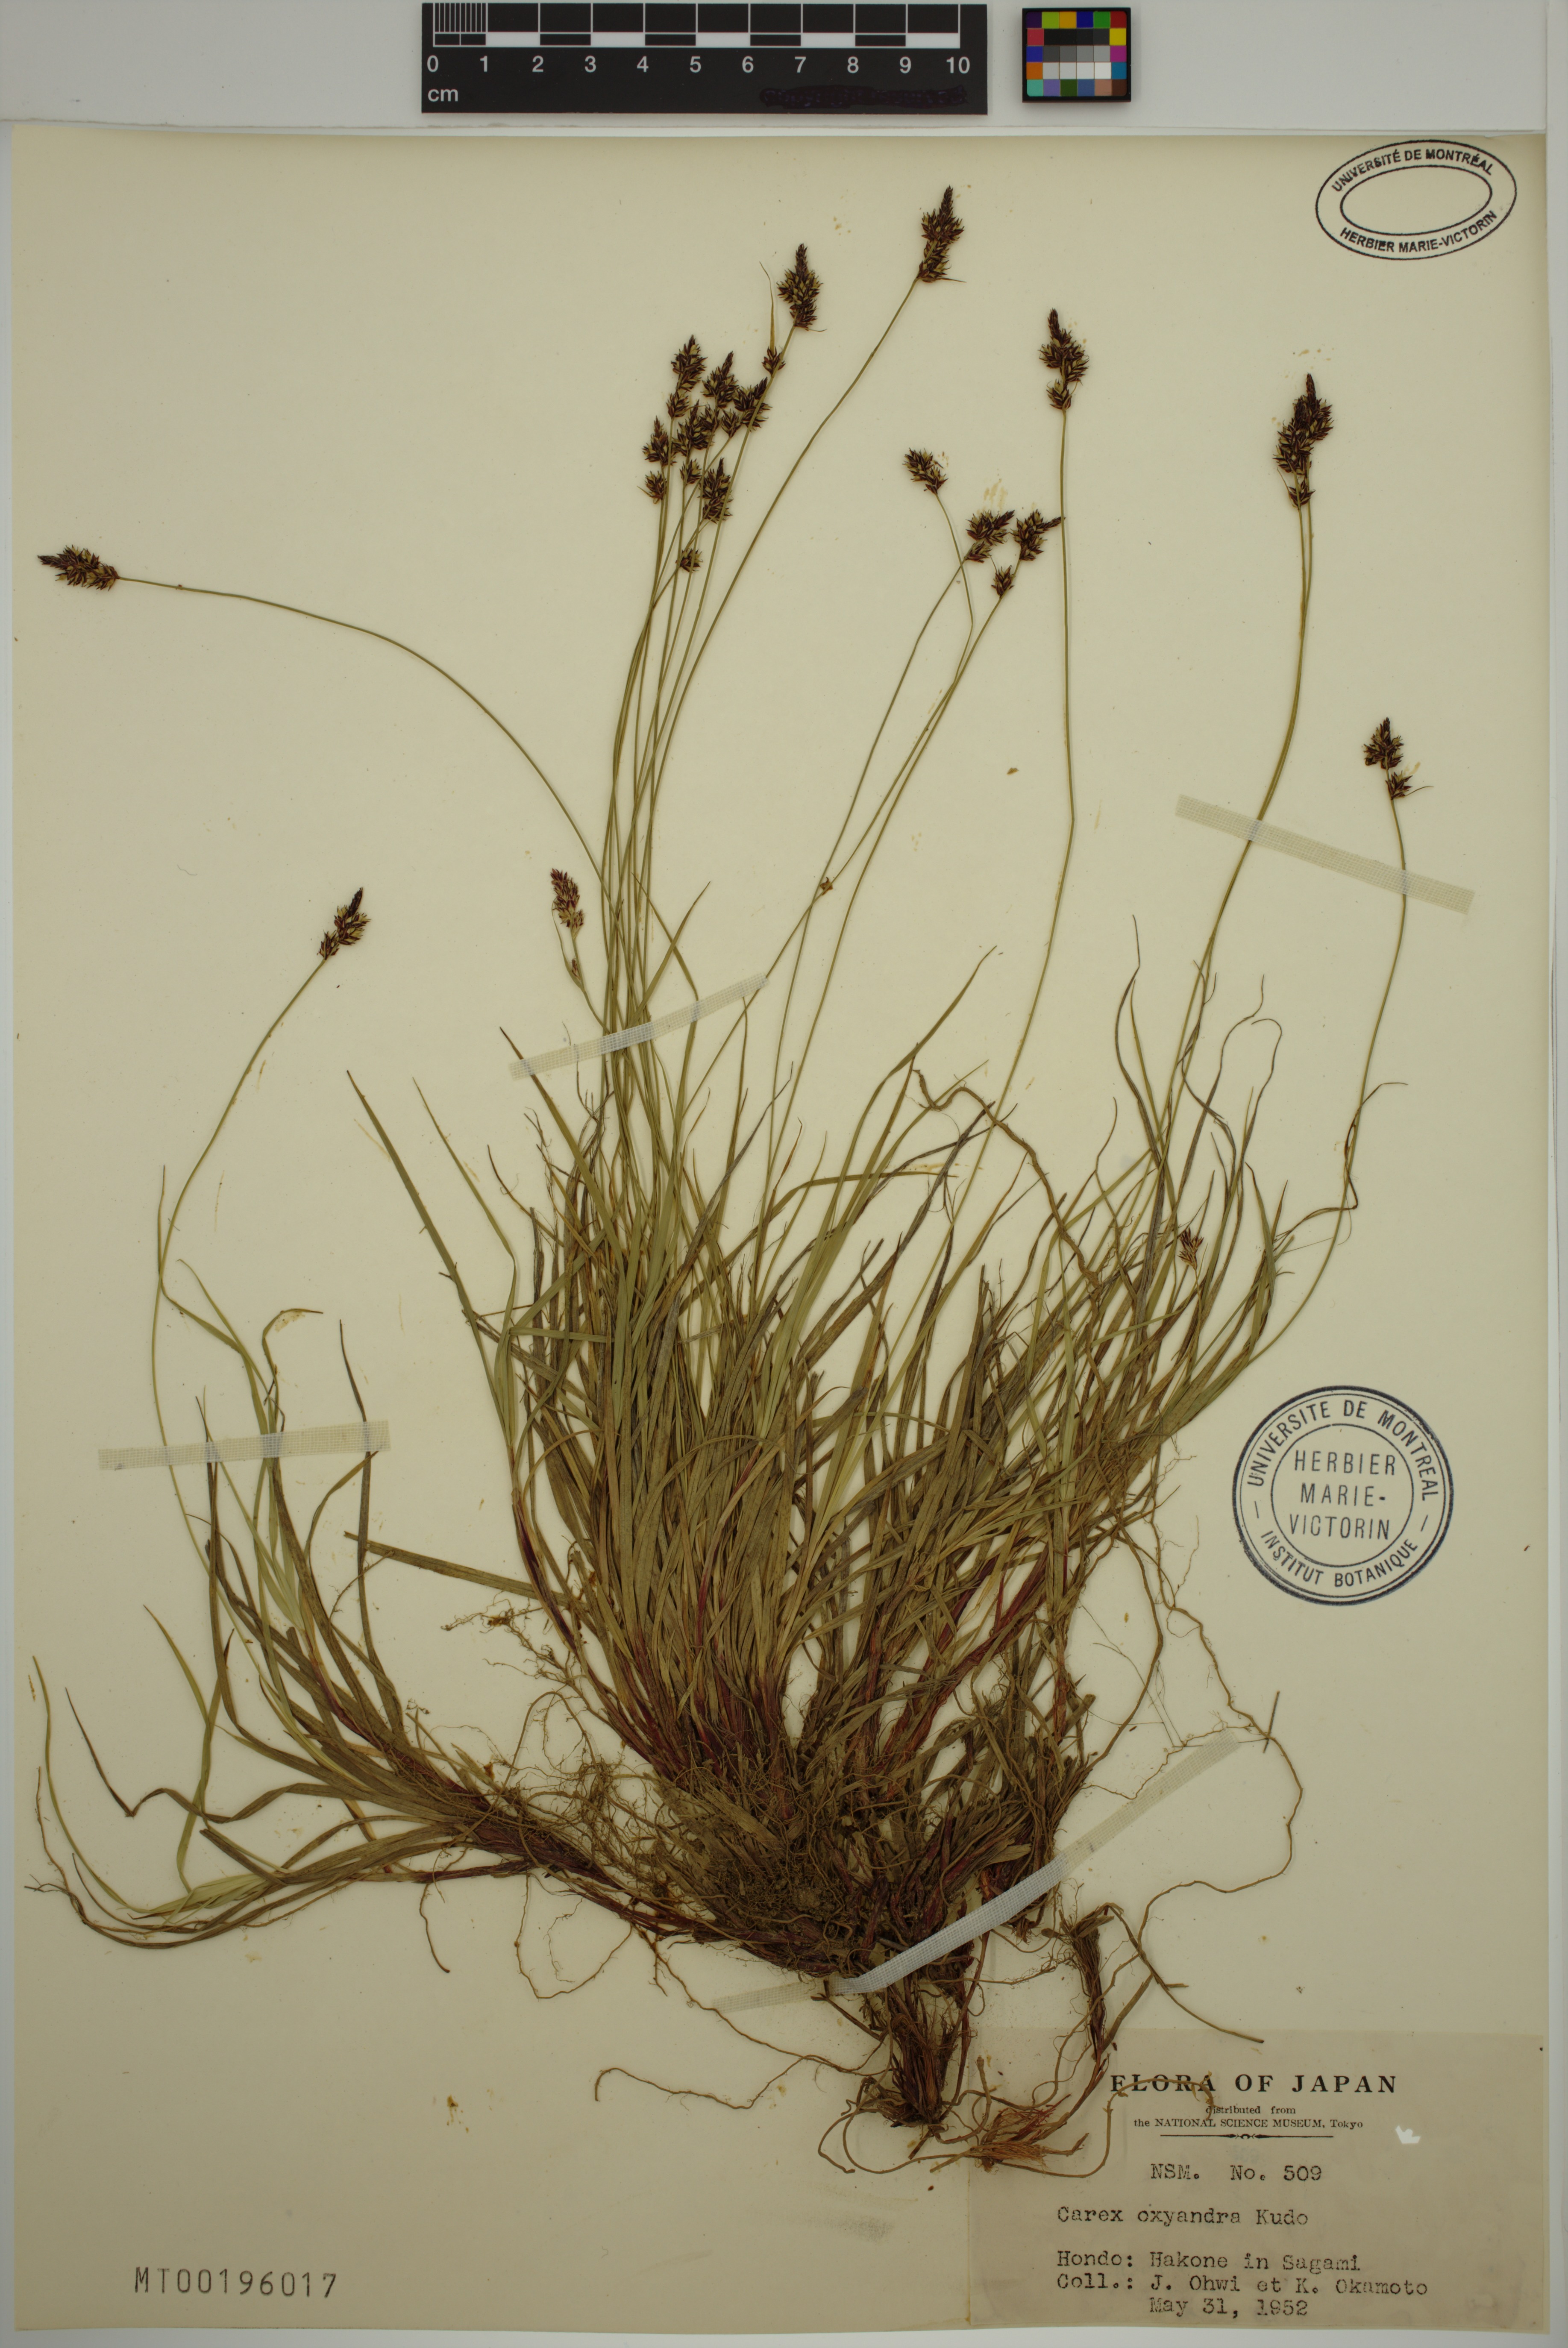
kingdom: Plantae
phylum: Tracheophyta
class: Liliopsida
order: Poales
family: Cyperaceae
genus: Carex
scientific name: Carex oxyandra
